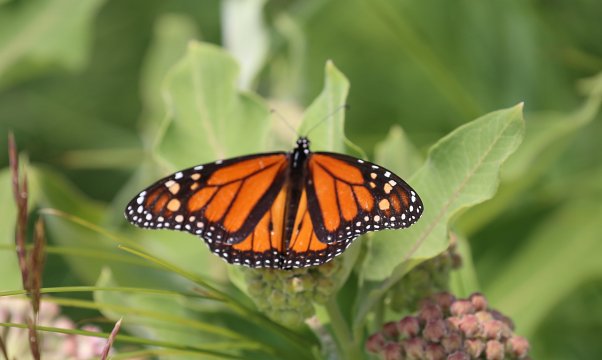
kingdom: Animalia
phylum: Arthropoda
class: Insecta
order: Lepidoptera
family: Nymphalidae
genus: Danaus
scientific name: Danaus plexippus
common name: Monarch
